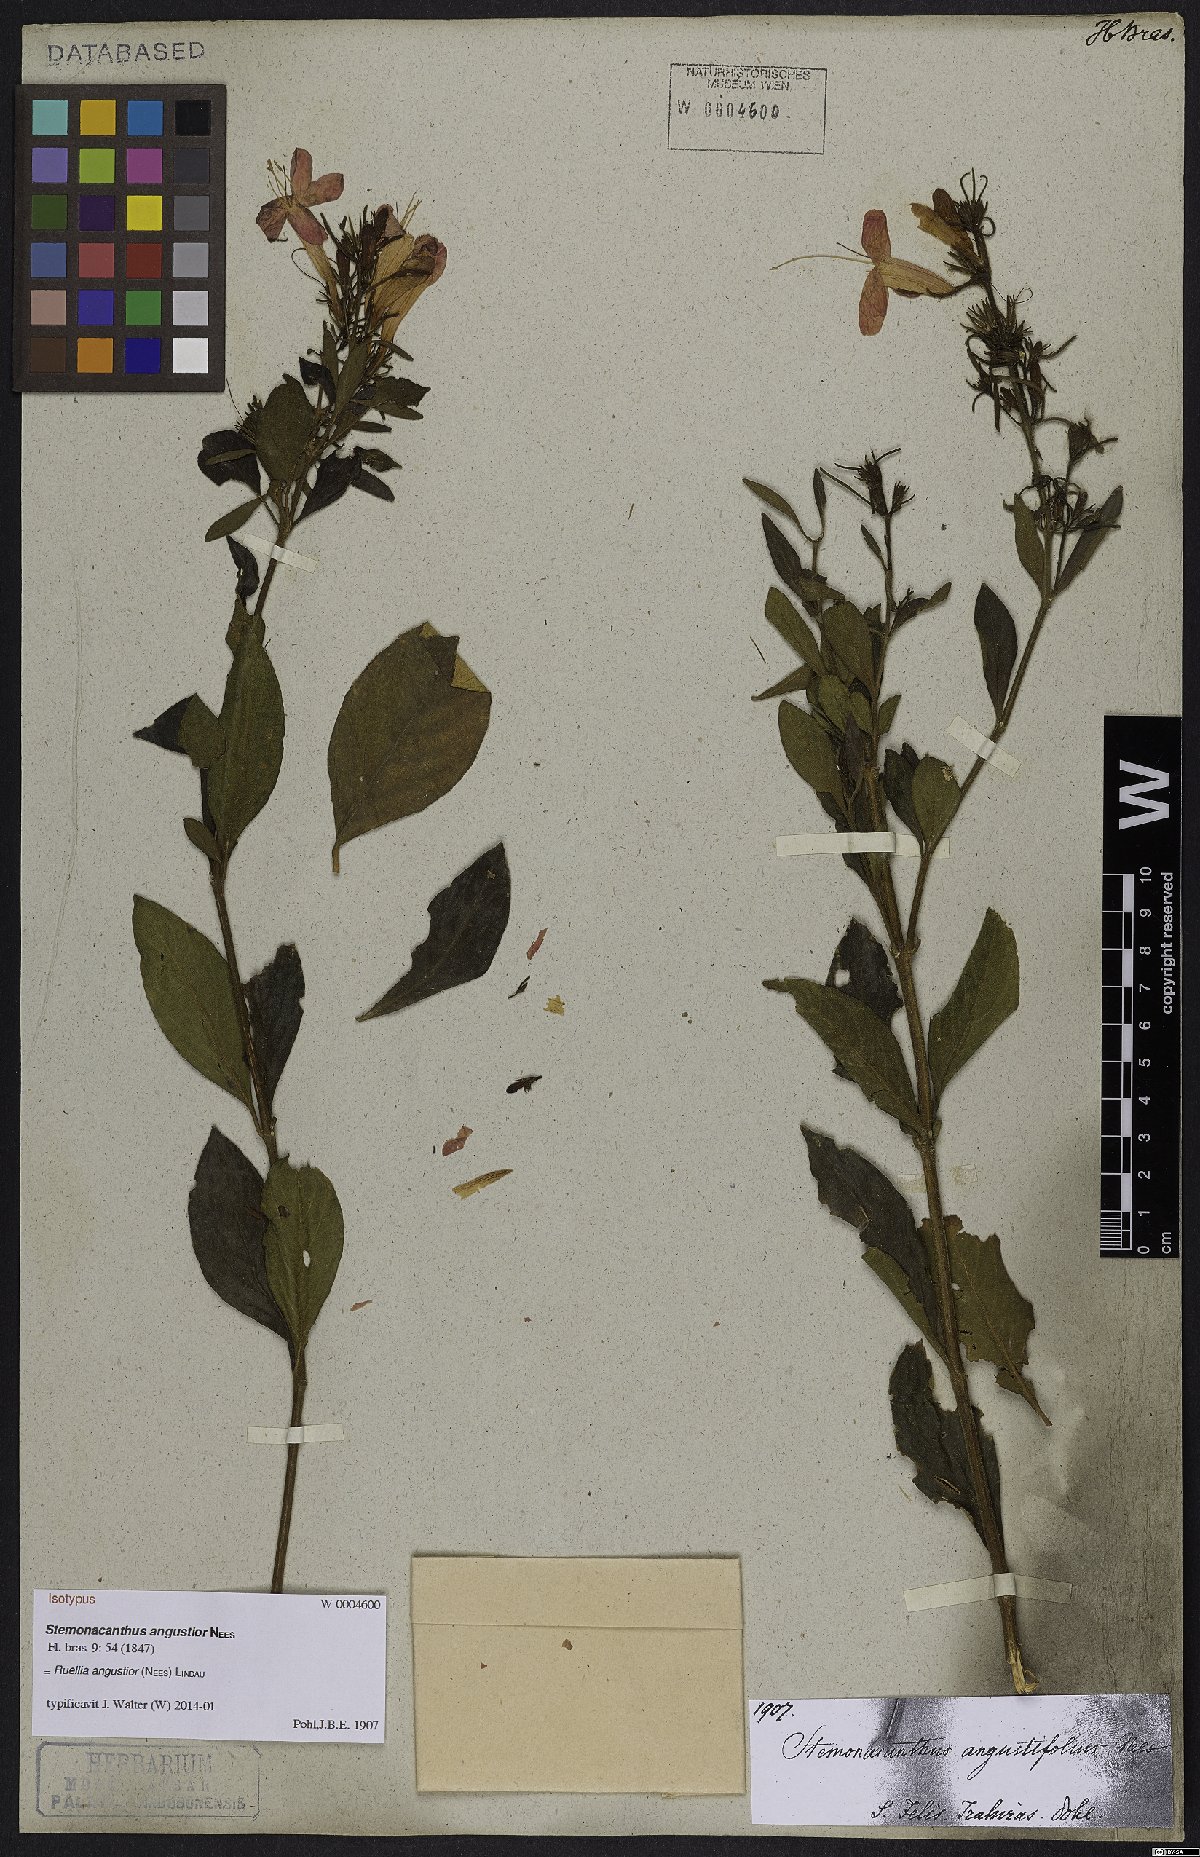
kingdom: Plantae
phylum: Tracheophyta
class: Magnoliopsida
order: Lamiales
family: Acanthaceae
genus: Ruellia
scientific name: Ruellia angustior
